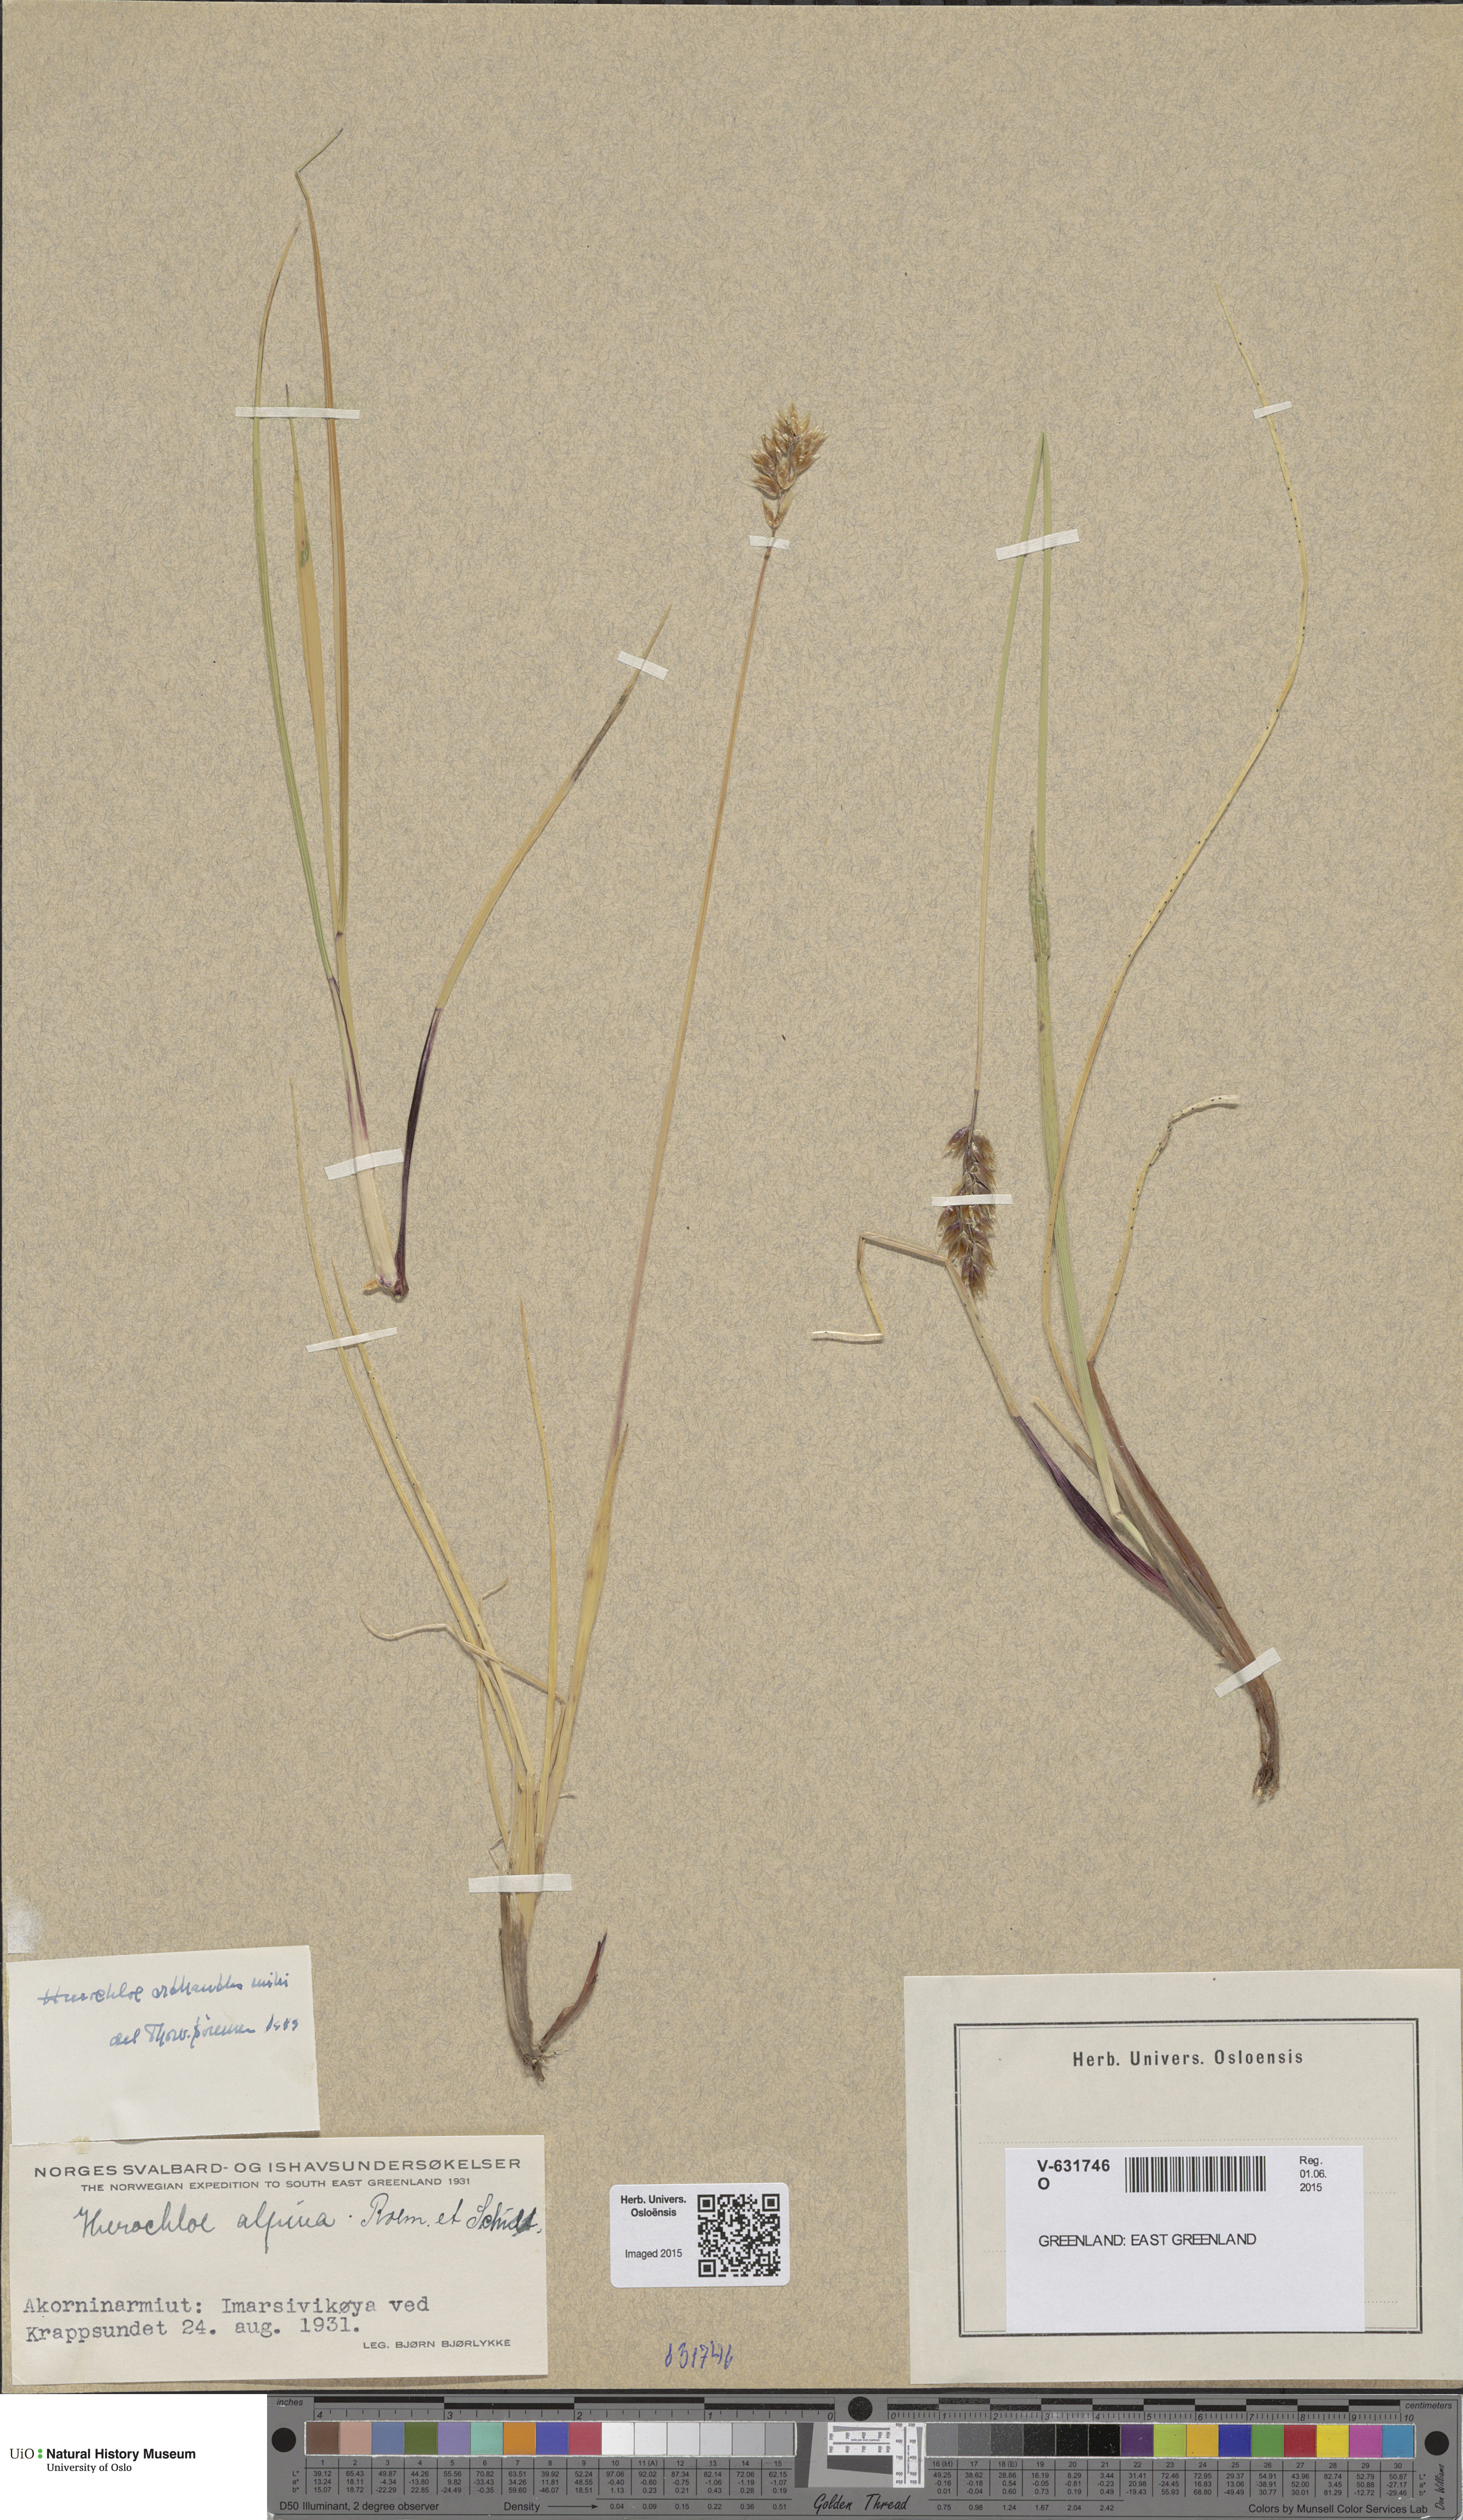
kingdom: Plantae
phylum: Tracheophyta
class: Liliopsida
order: Poales
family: Poaceae
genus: Anthoxanthum
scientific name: Anthoxanthum monticola
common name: Alpine sweetgrass
